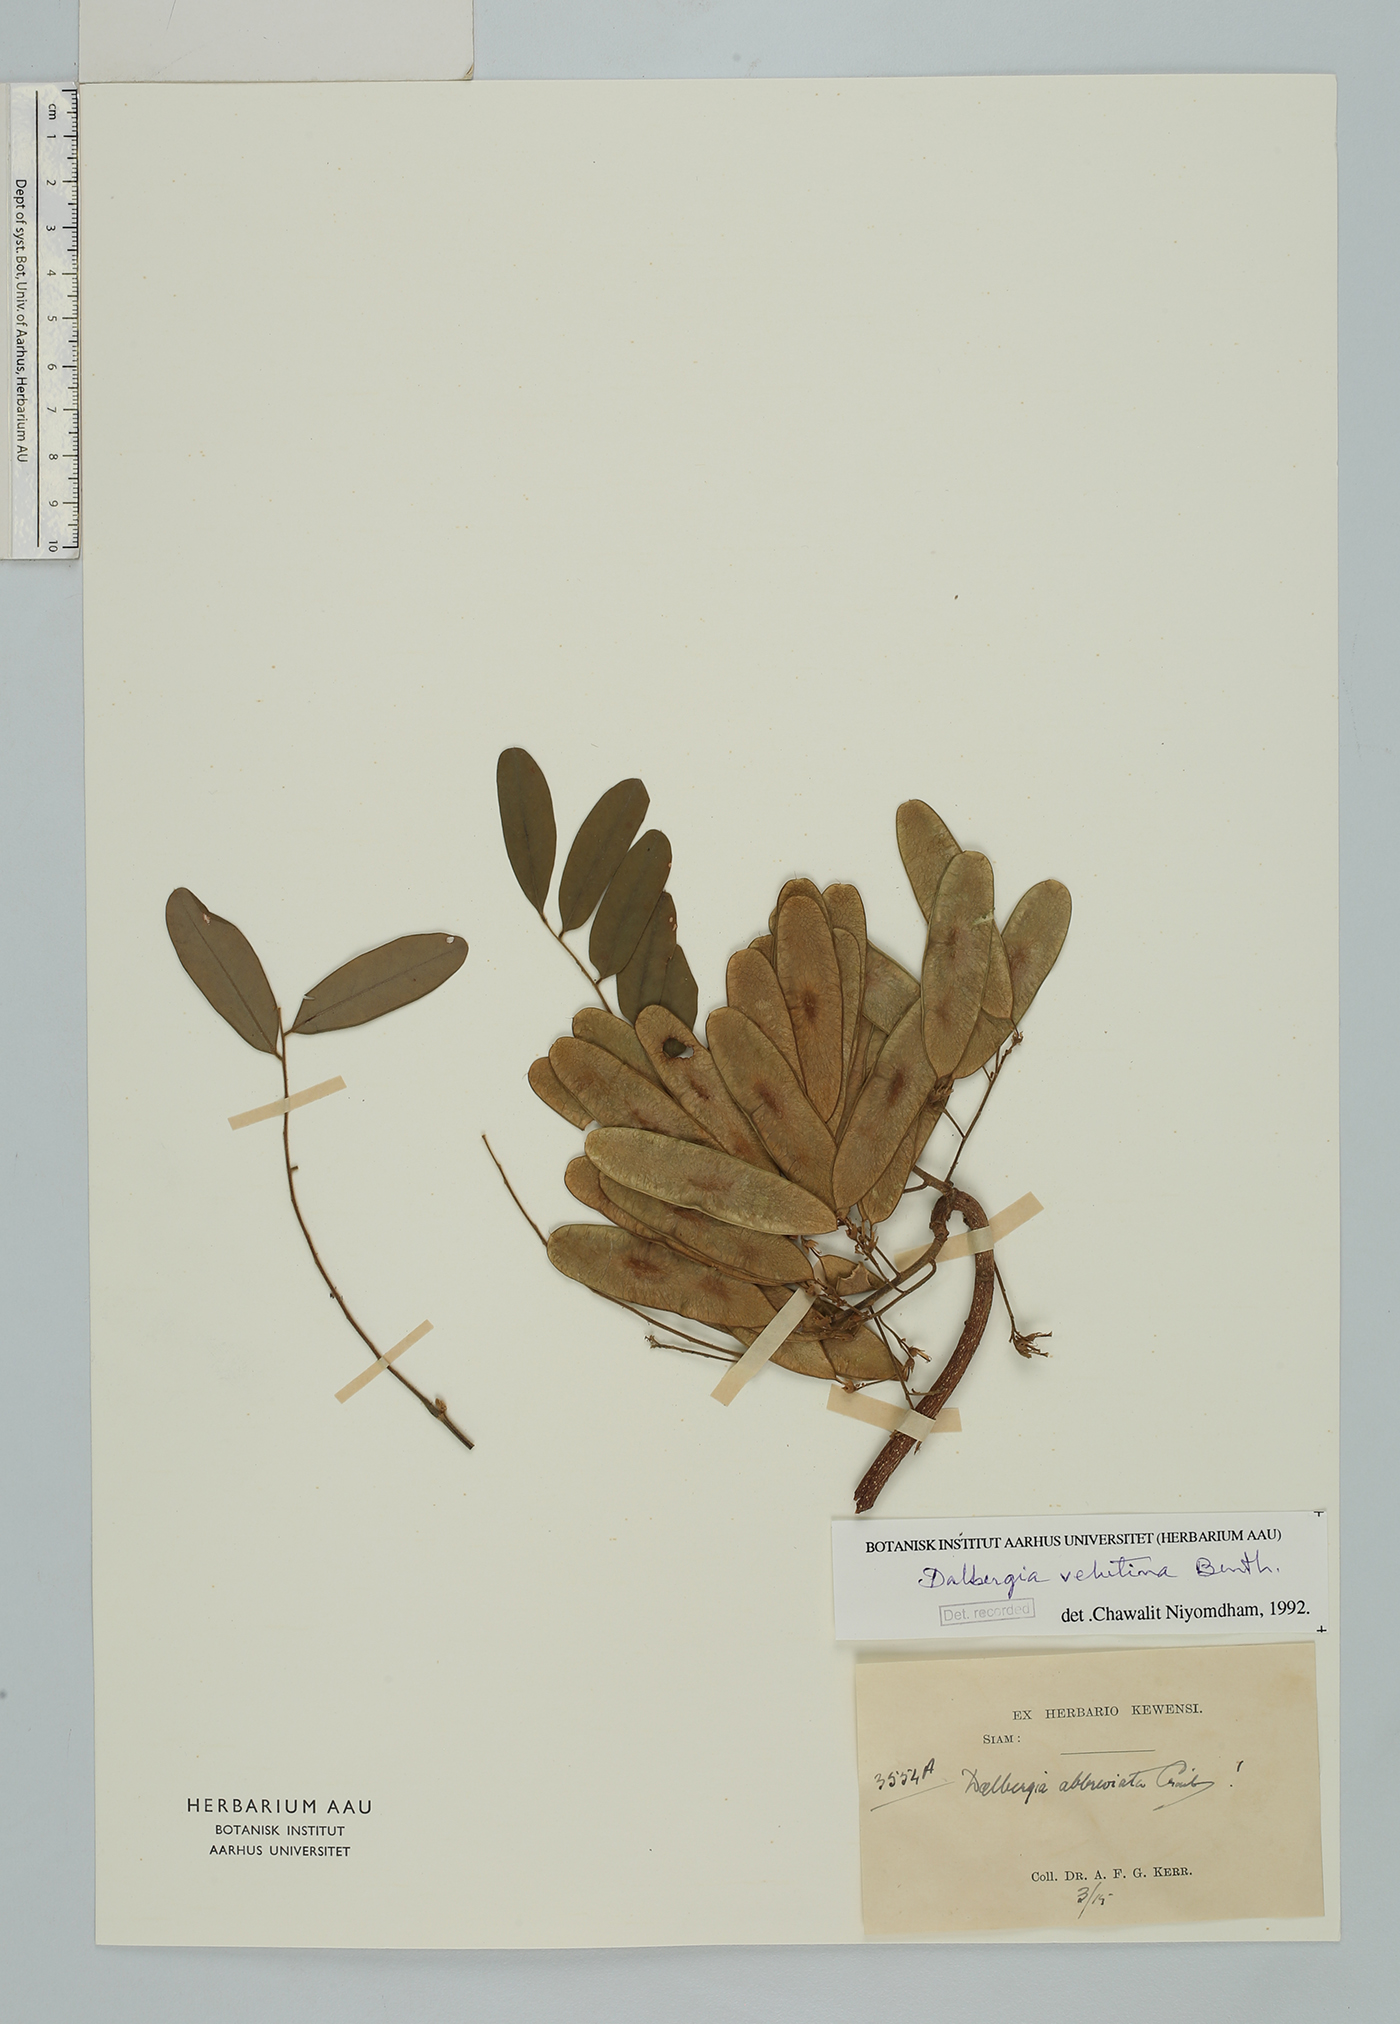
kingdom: Plantae
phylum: Tracheophyta
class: Magnoliopsida
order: Fabales
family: Fabaceae
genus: Dalbergia
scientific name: Dalbergia velutina
